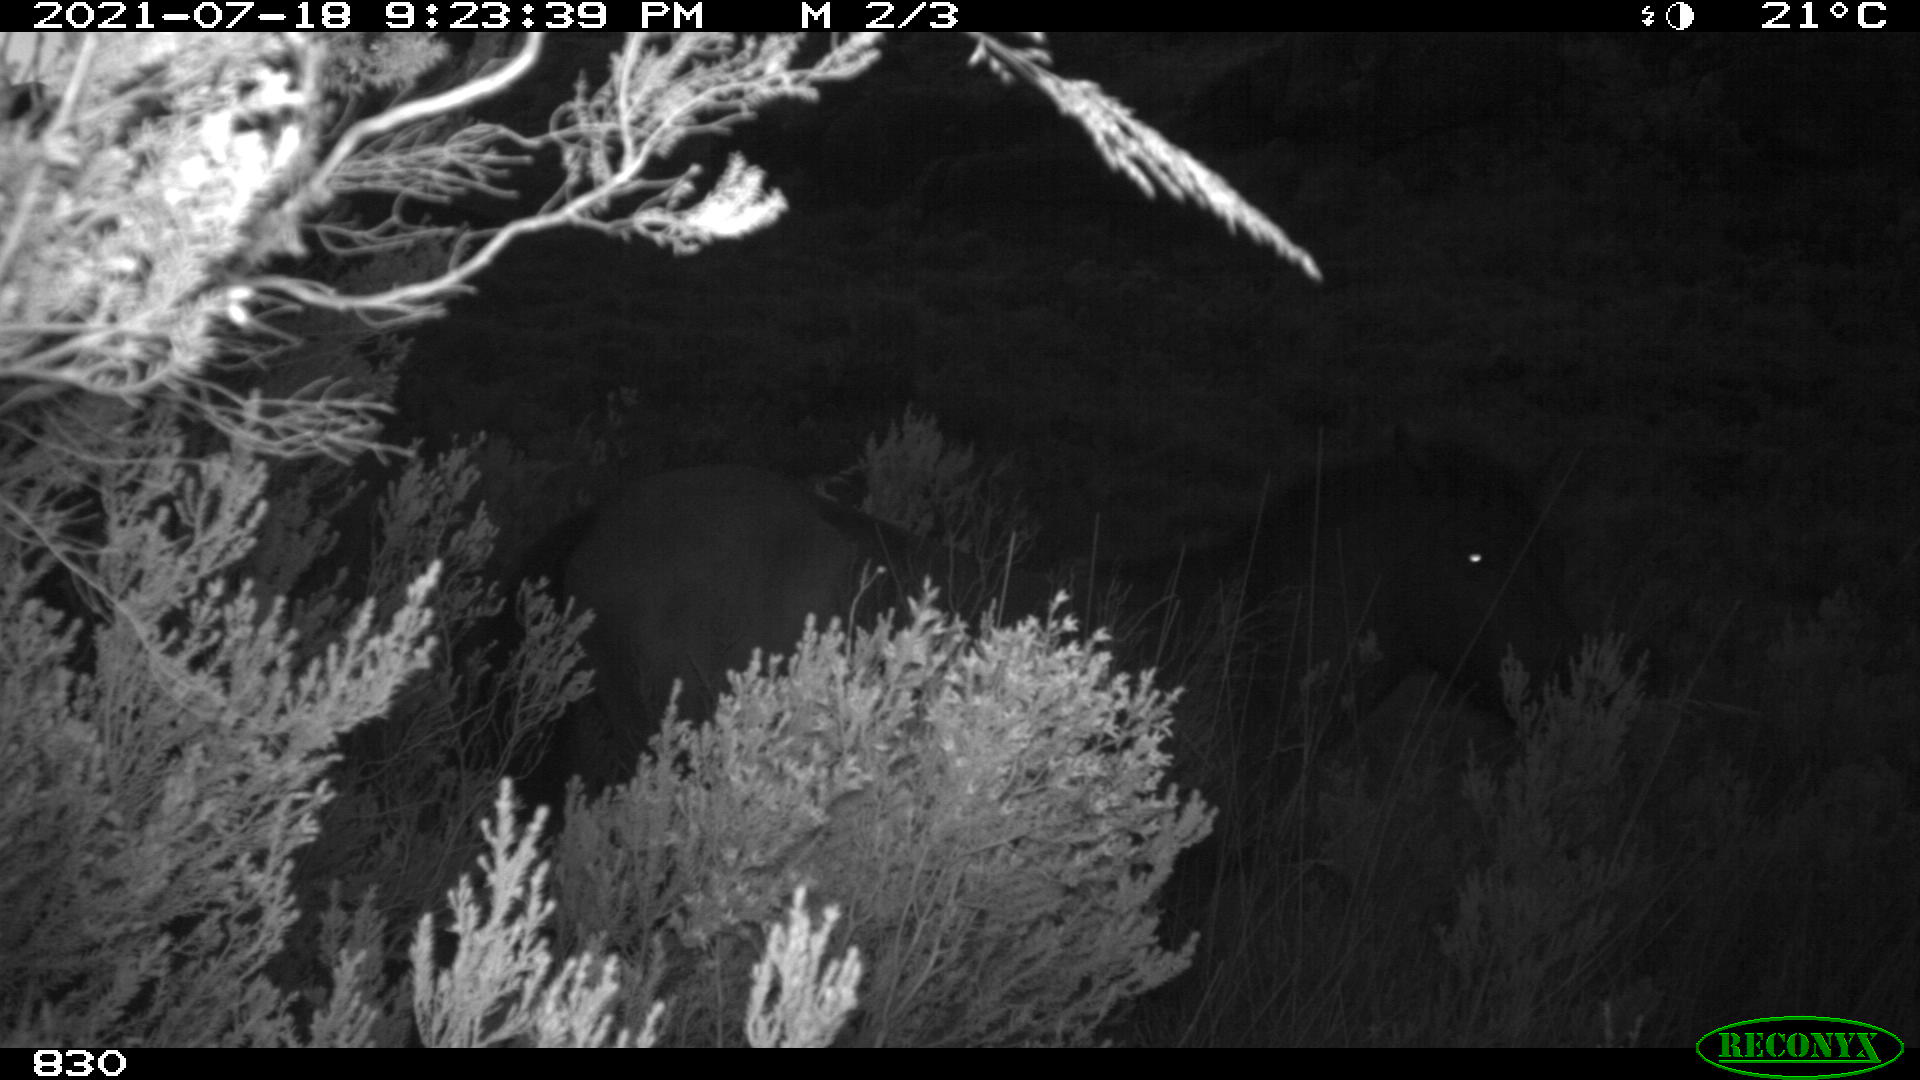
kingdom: Animalia
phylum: Chordata
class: Mammalia
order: Perissodactyla
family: Equidae
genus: Equus
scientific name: Equus caballus
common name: Horse
